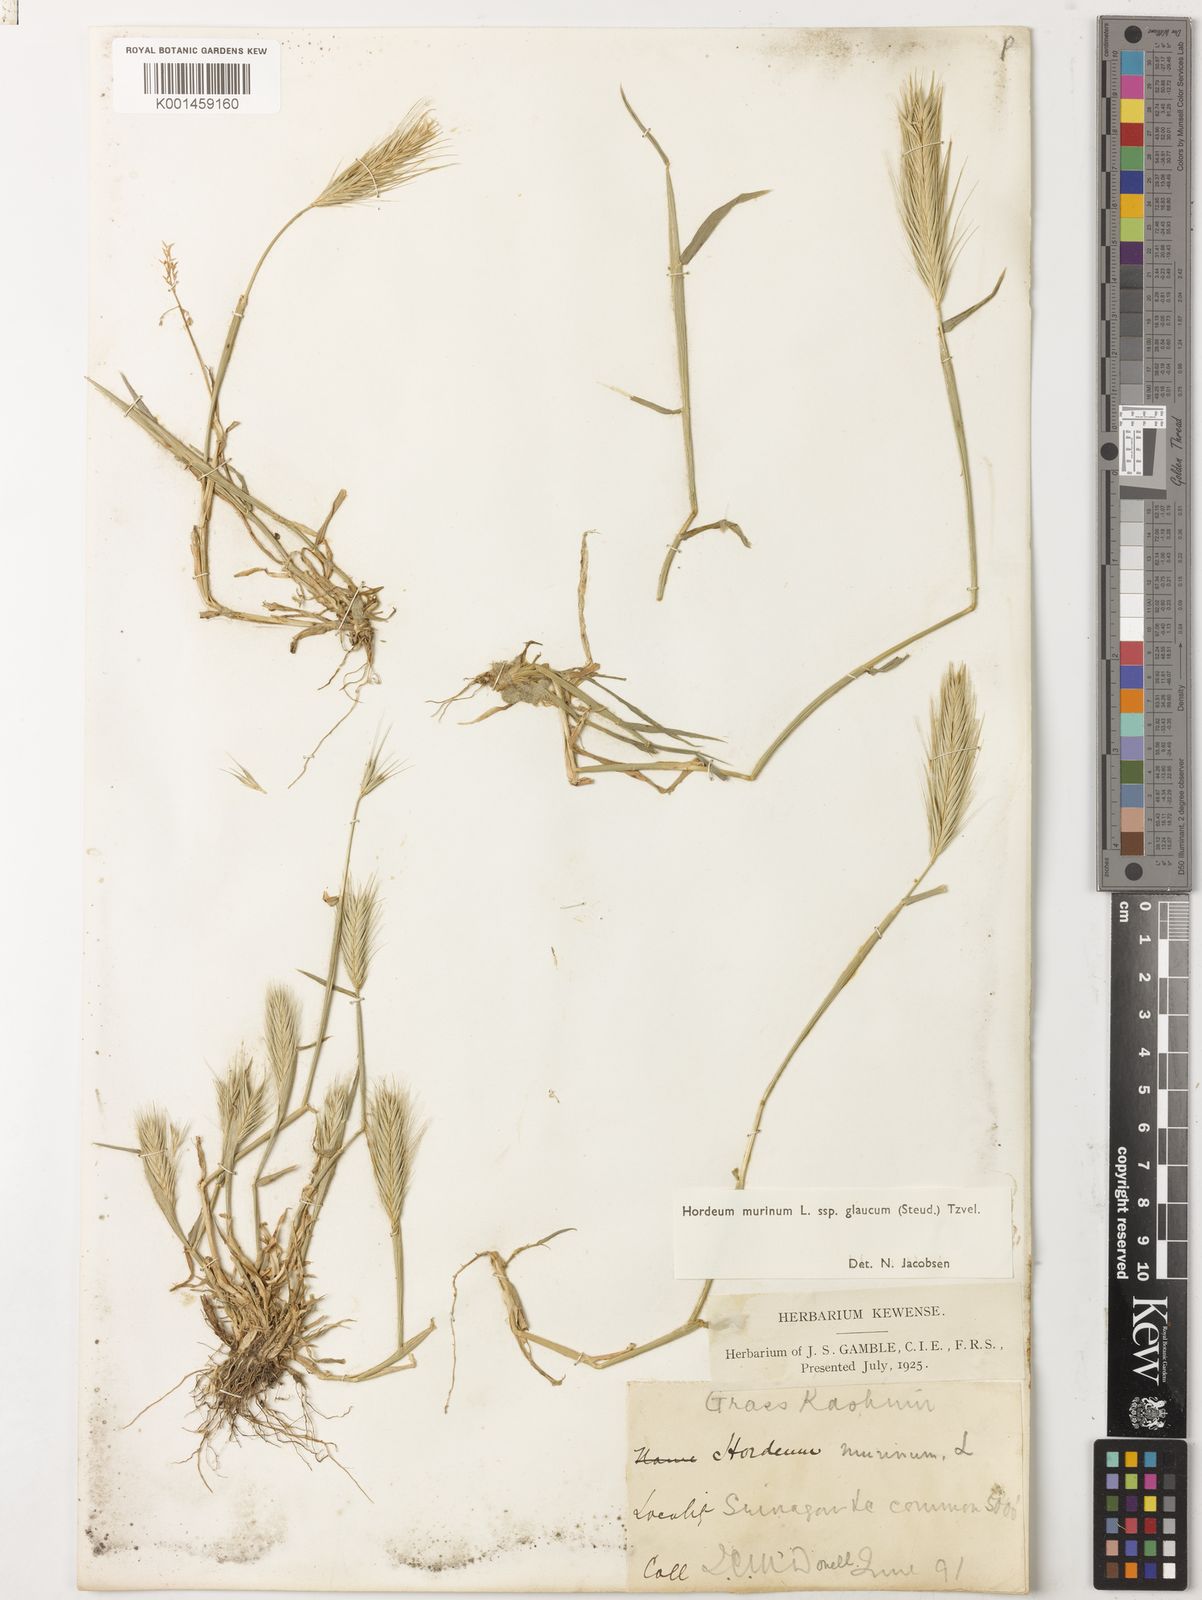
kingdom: Plantae
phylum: Tracheophyta
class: Liliopsida
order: Poales
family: Poaceae
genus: Hordeum
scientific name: Hordeum murinum
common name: Wall barley
